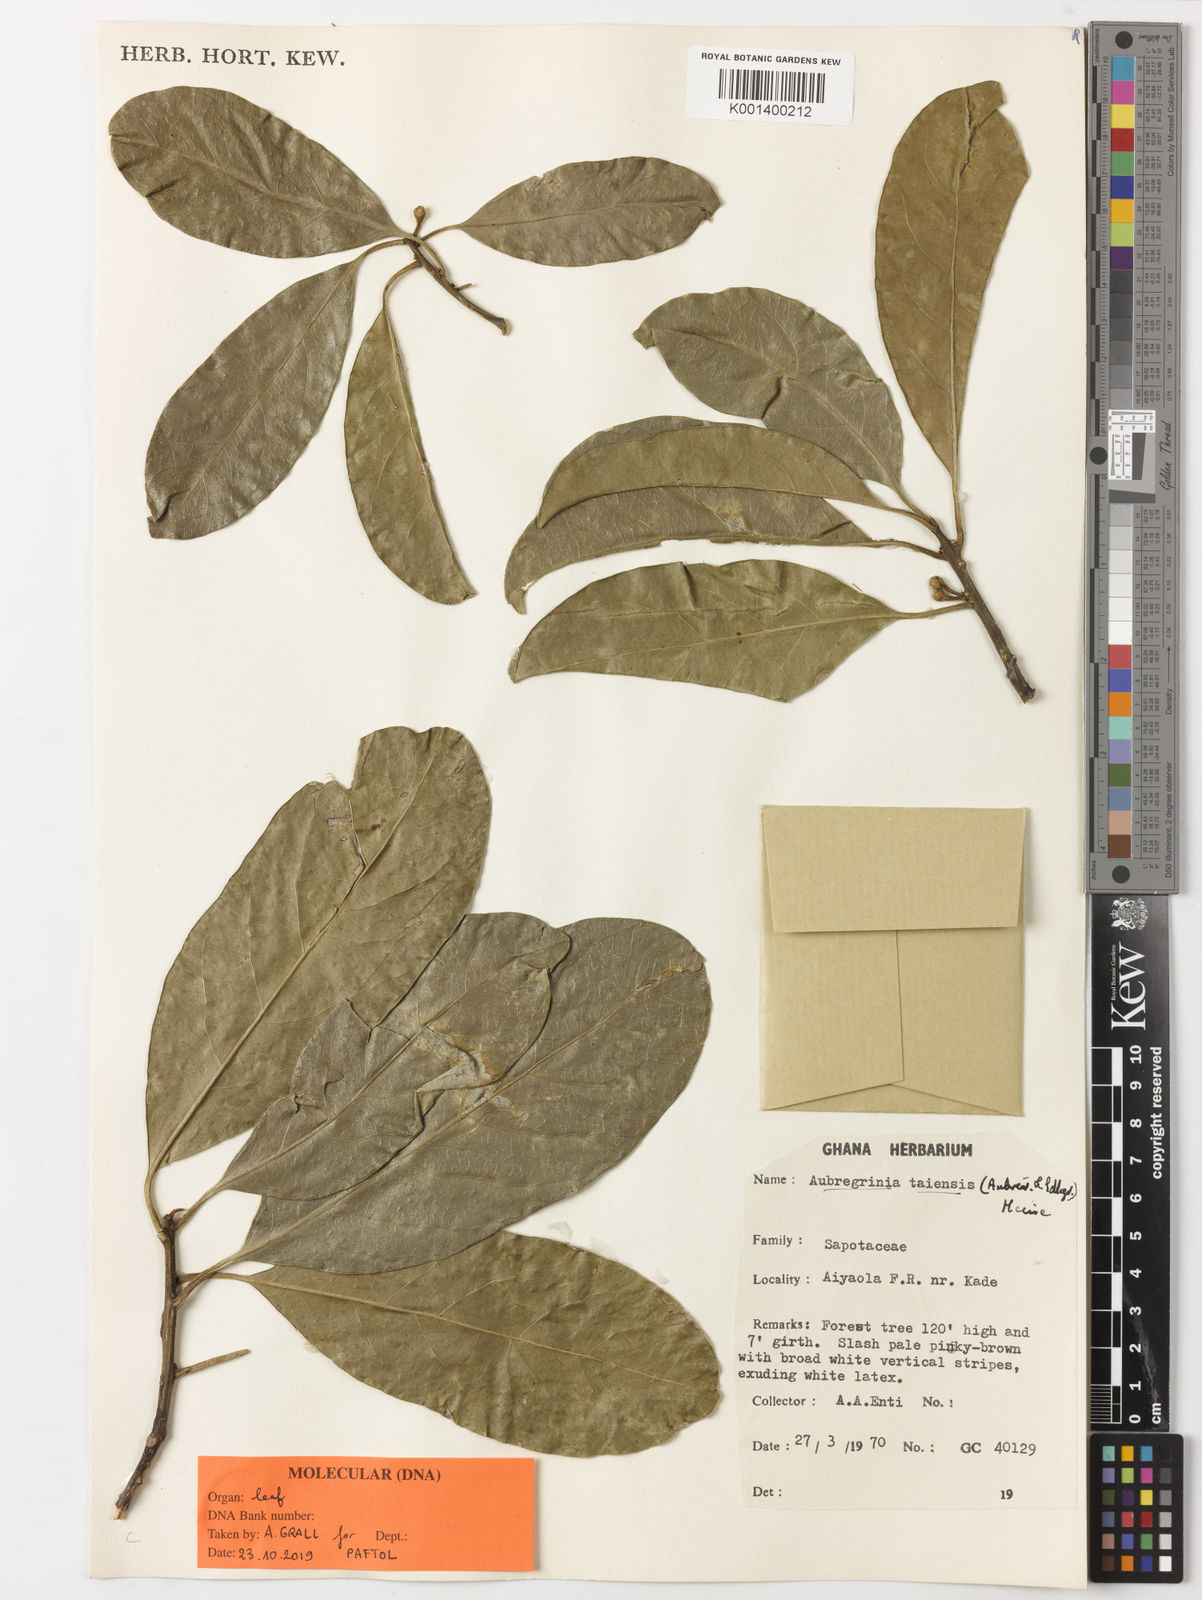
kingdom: Plantae
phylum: Tracheophyta
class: Magnoliopsida
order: Ericales
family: Sapotaceae
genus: Aubregrinia
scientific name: Aubregrinia
